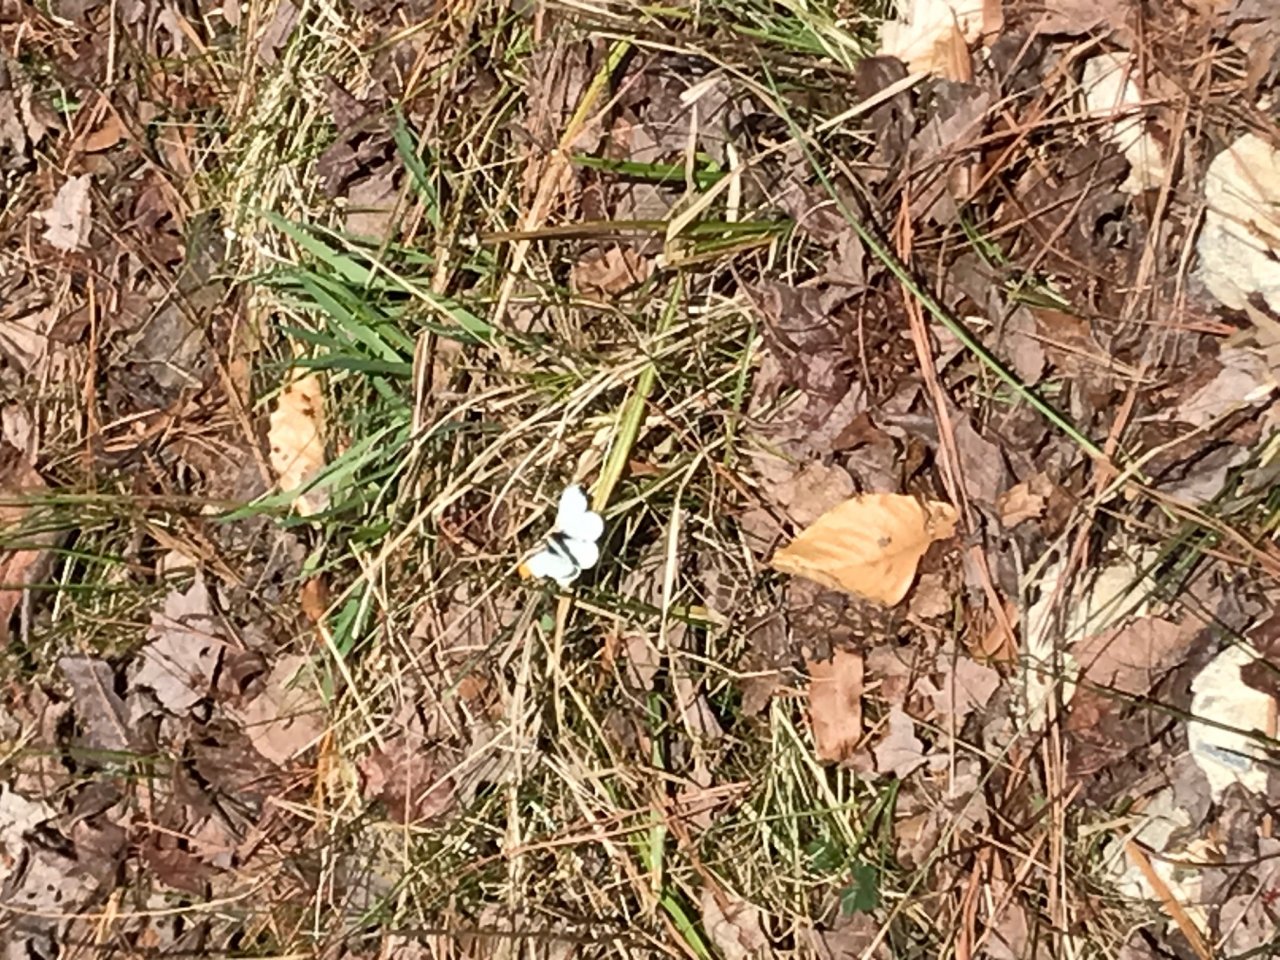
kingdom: Animalia
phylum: Arthropoda
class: Insecta
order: Lepidoptera
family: Pieridae
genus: Anthocharis
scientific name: Anthocharis midea
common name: Falcate Orangetip
